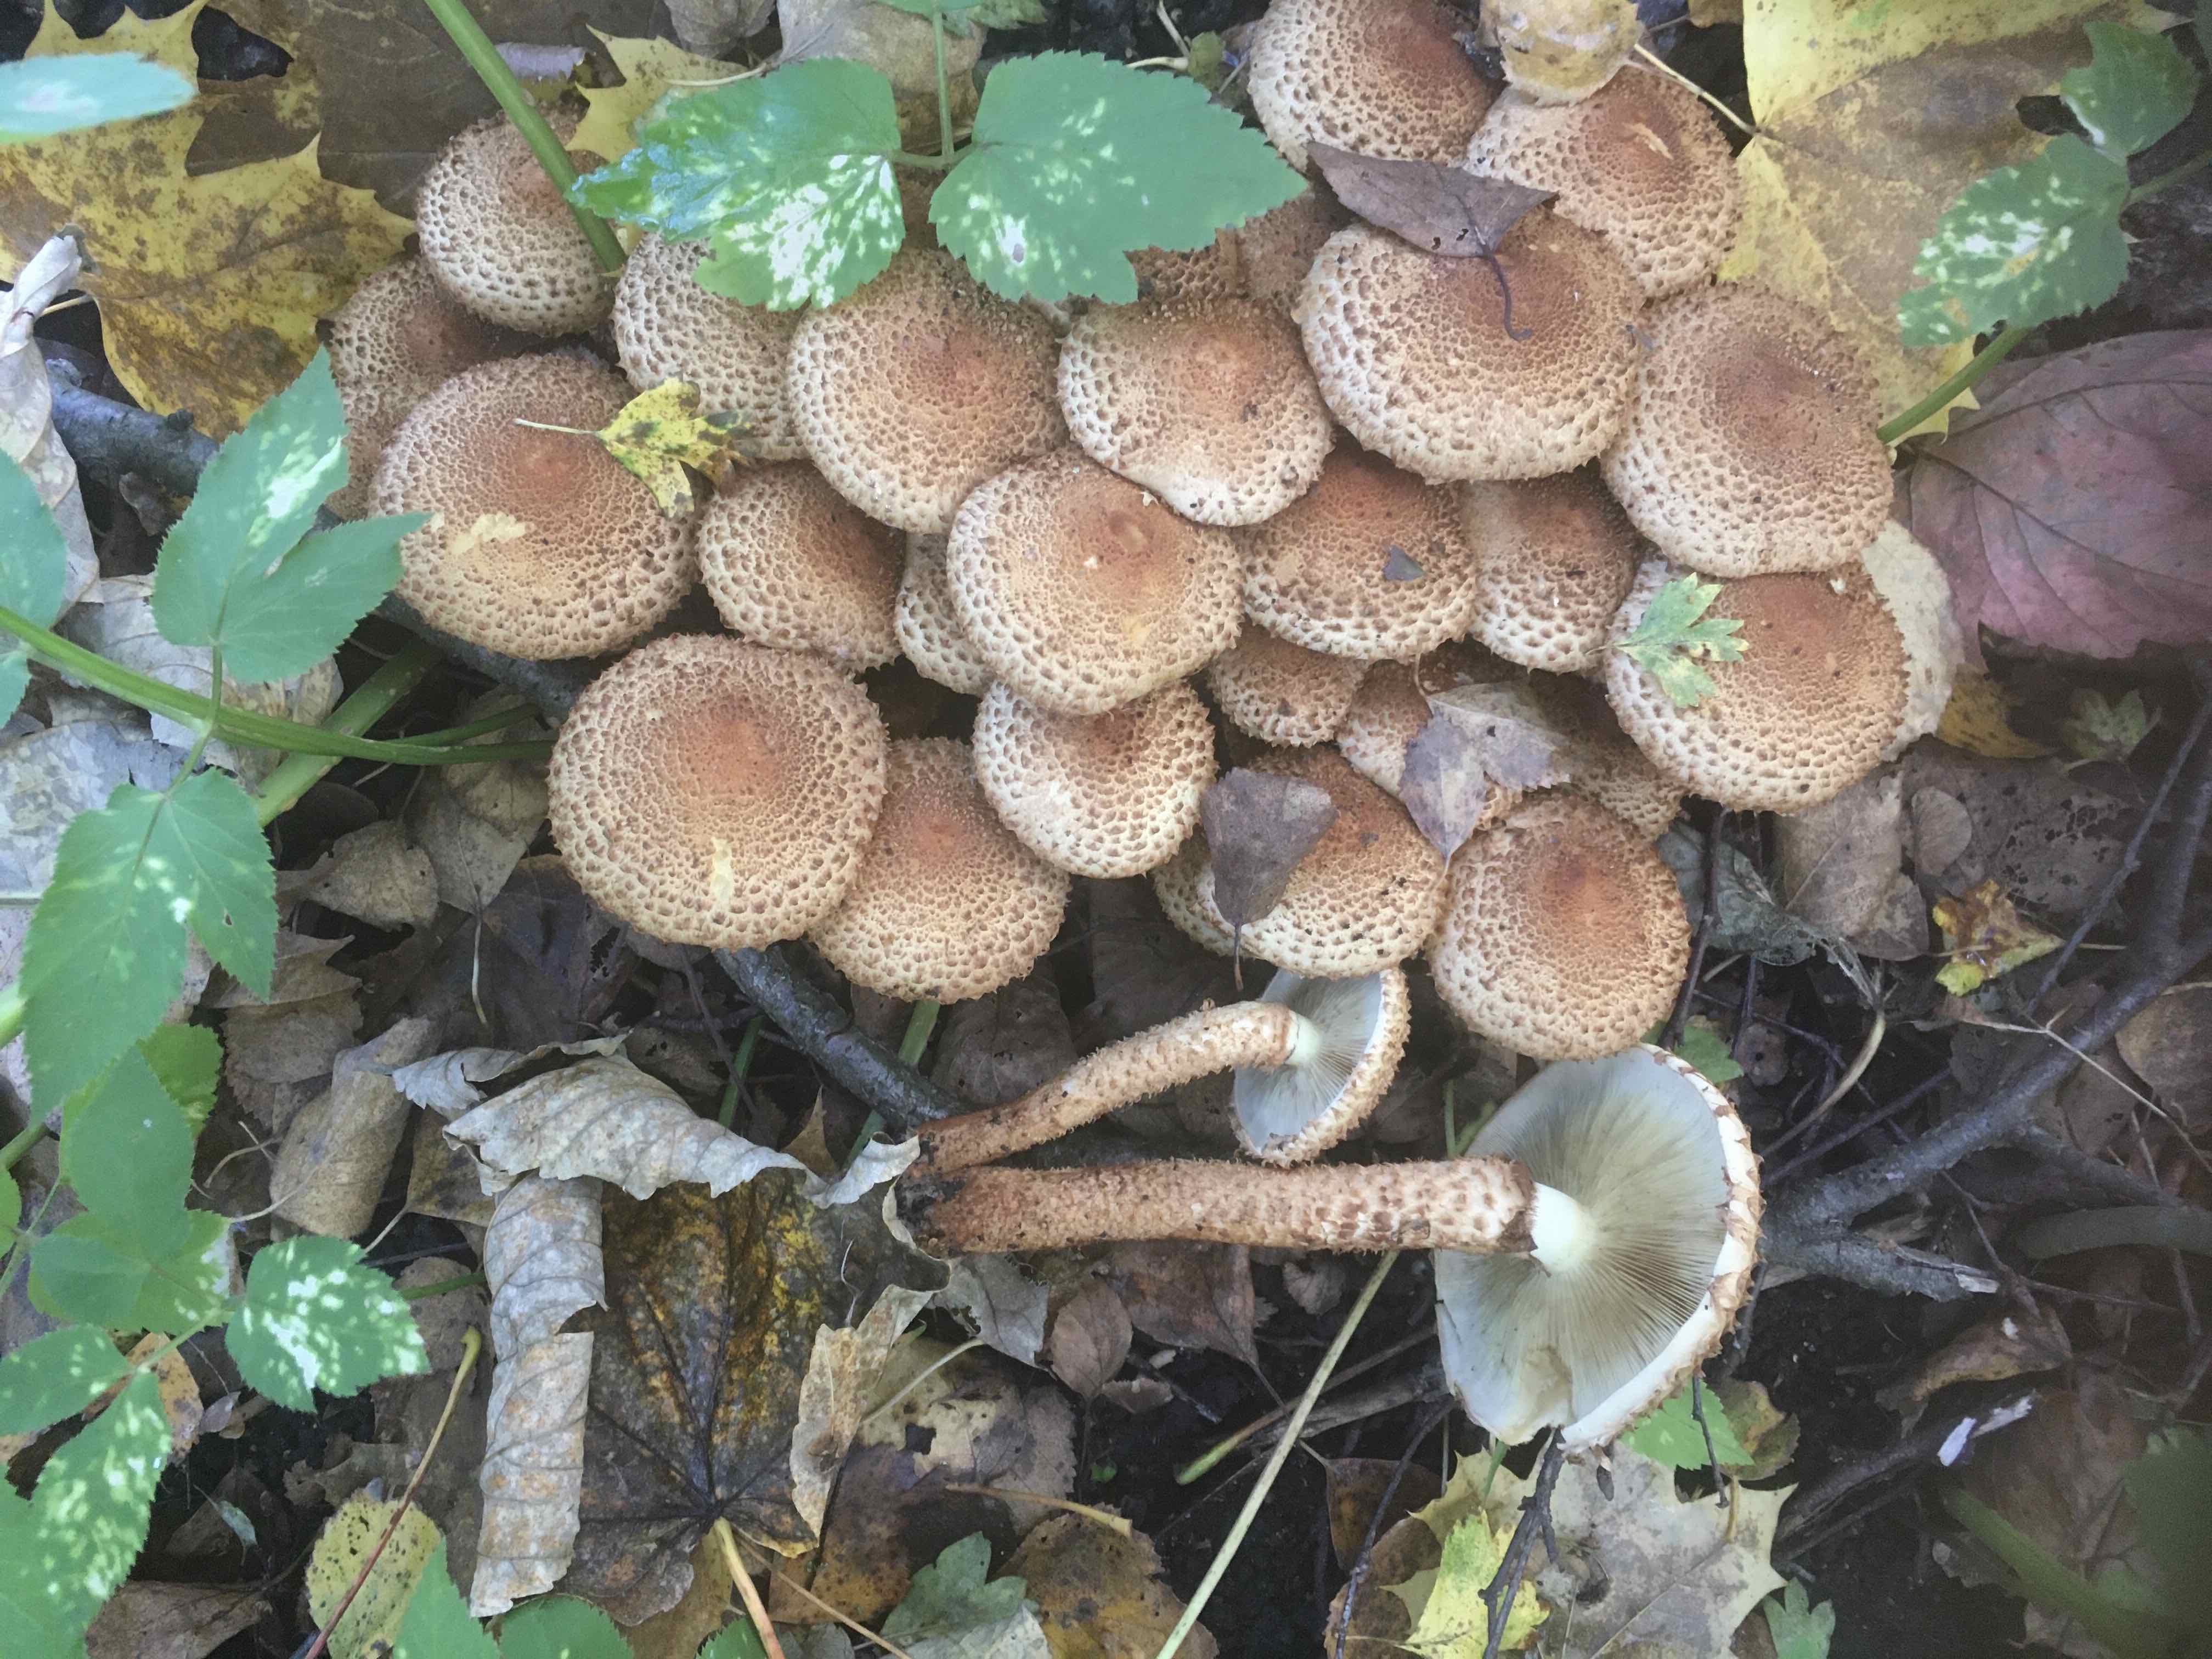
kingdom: Fungi
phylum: Basidiomycota
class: Agaricomycetes
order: Agaricales
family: Strophariaceae
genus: Pholiota
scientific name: Pholiota squarrosa
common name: krumskællet skælhat
